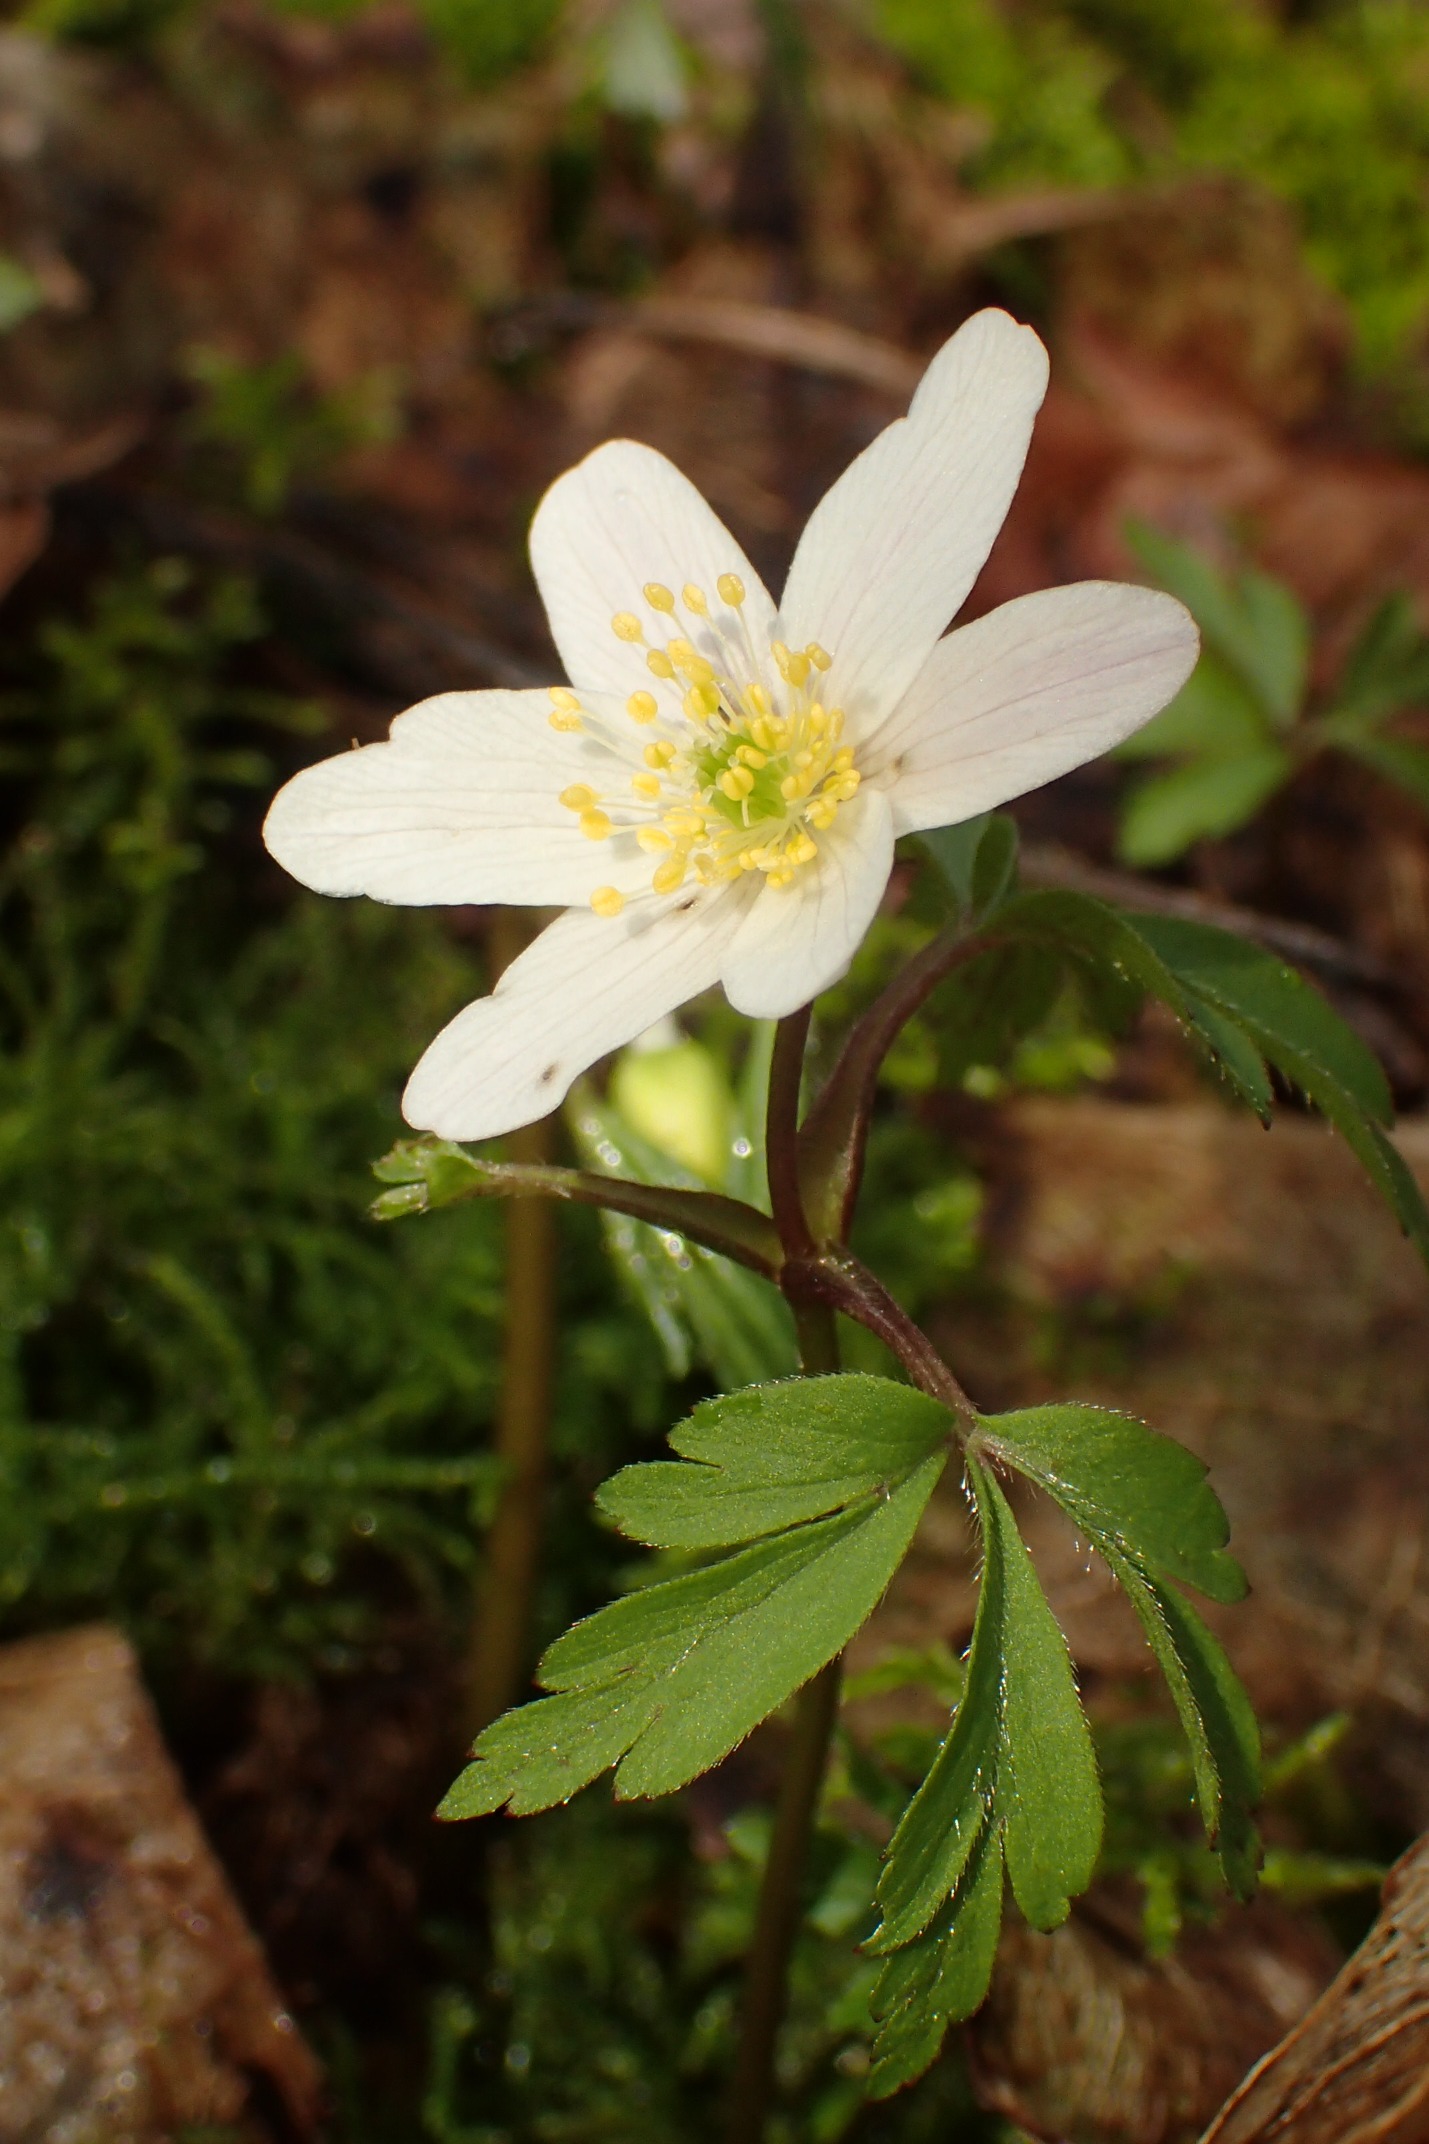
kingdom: Plantae
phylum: Tracheophyta
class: Magnoliopsida
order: Ranunculales
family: Ranunculaceae
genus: Anemone
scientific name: Anemone nemorosa
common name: Hvid anemone
